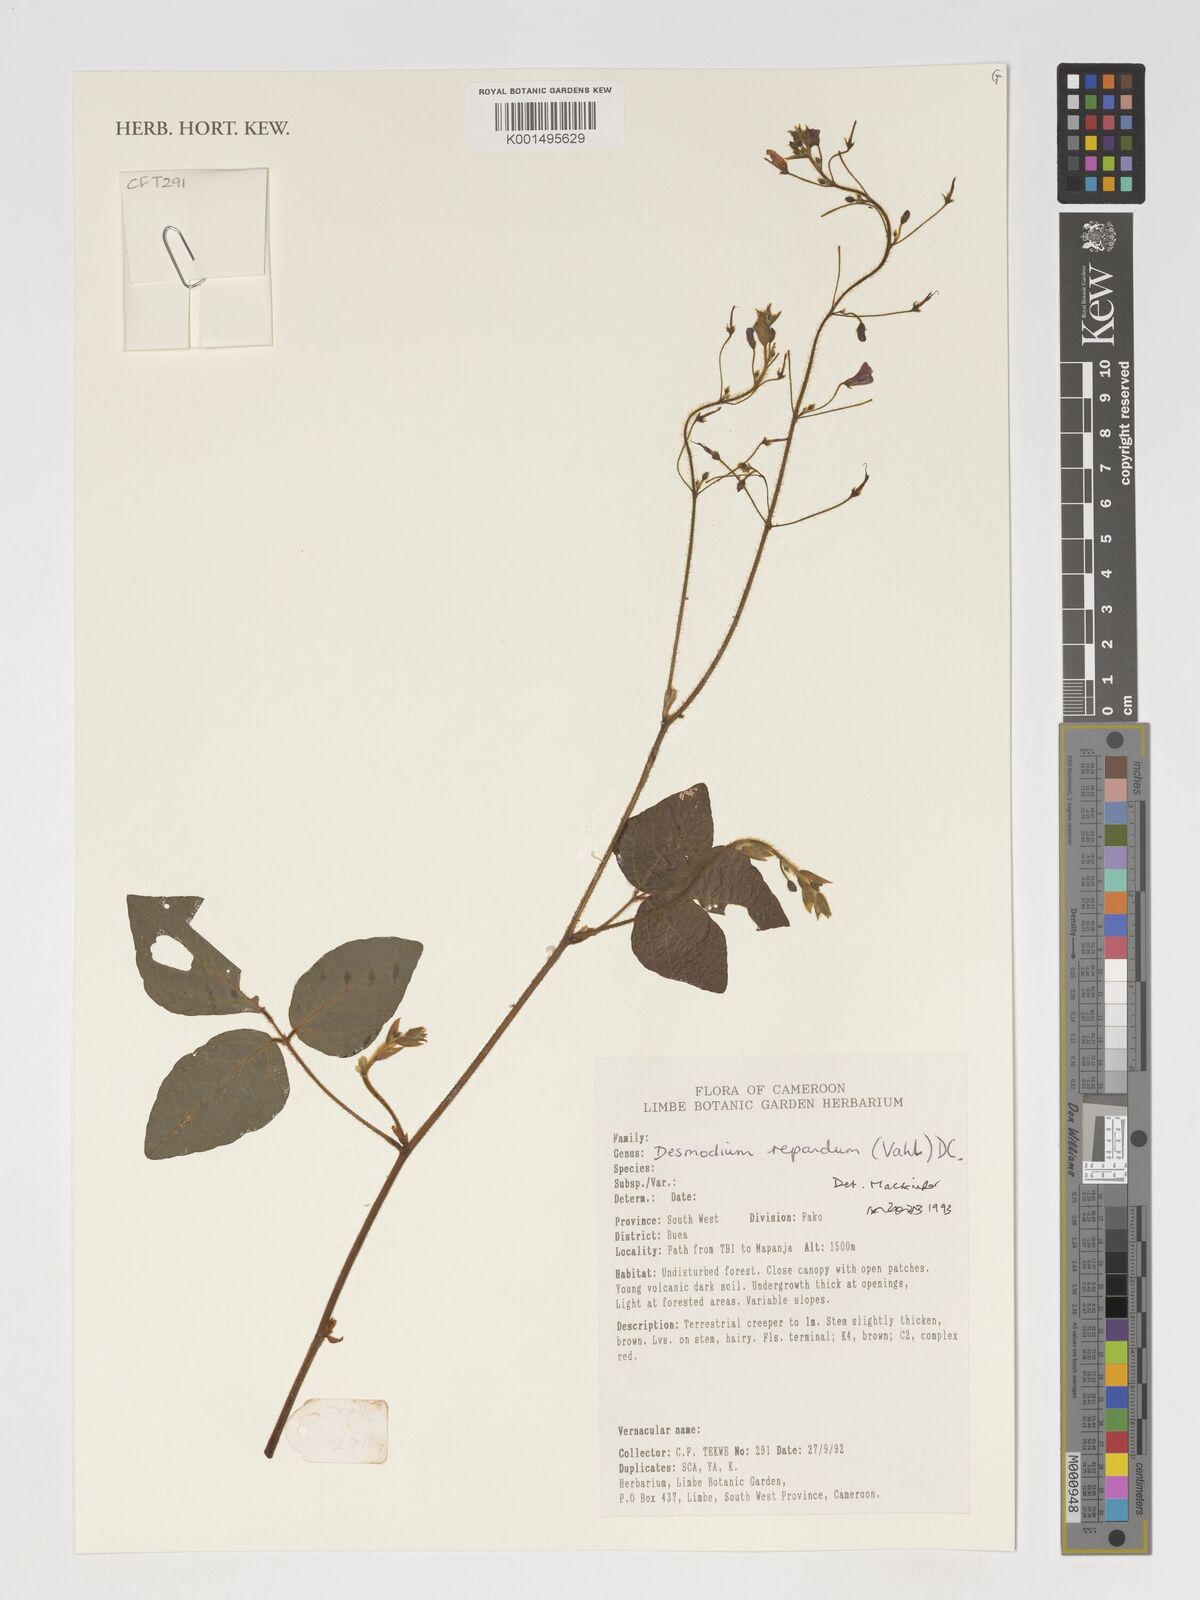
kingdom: Plantae
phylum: Tracheophyta
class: Magnoliopsida
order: Fabales
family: Fabaceae
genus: Hylodesmum
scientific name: Hylodesmum repandum
